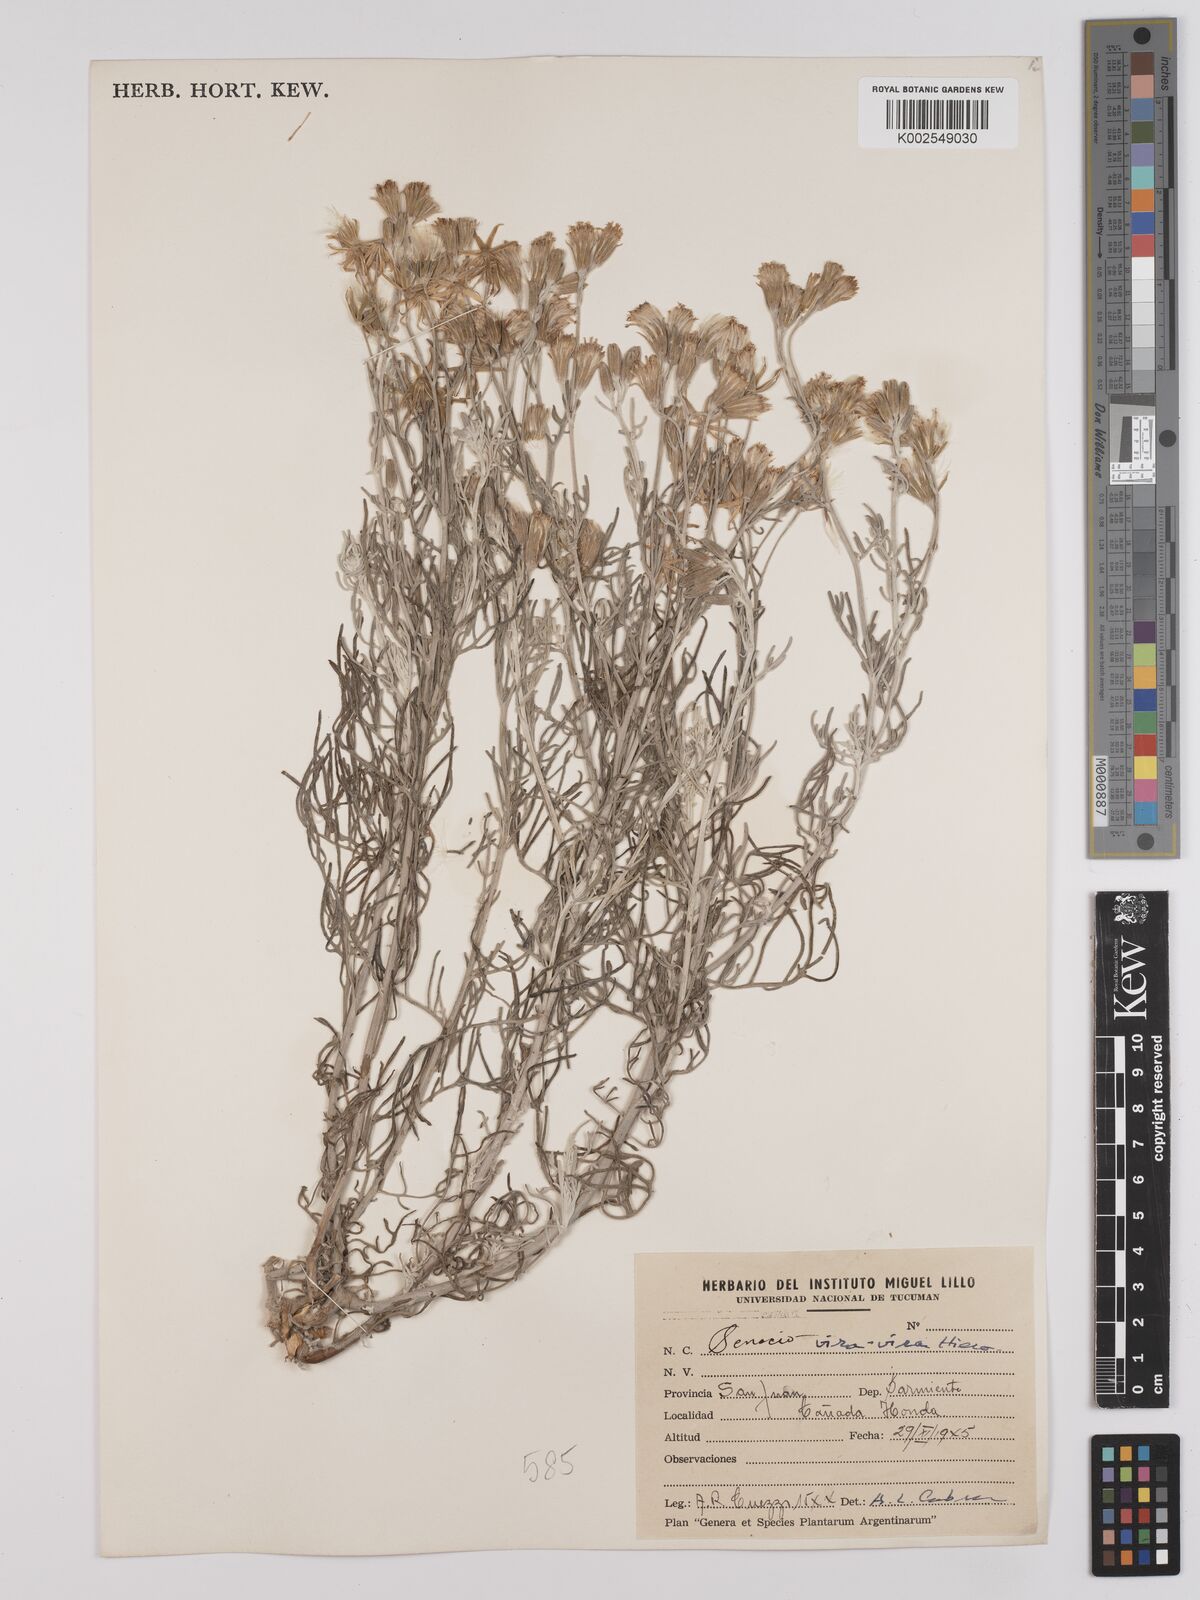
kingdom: Plantae
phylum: Tracheophyta
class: Magnoliopsida
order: Asterales
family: Asteraceae
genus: Senecio
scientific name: Senecio leucostachys
